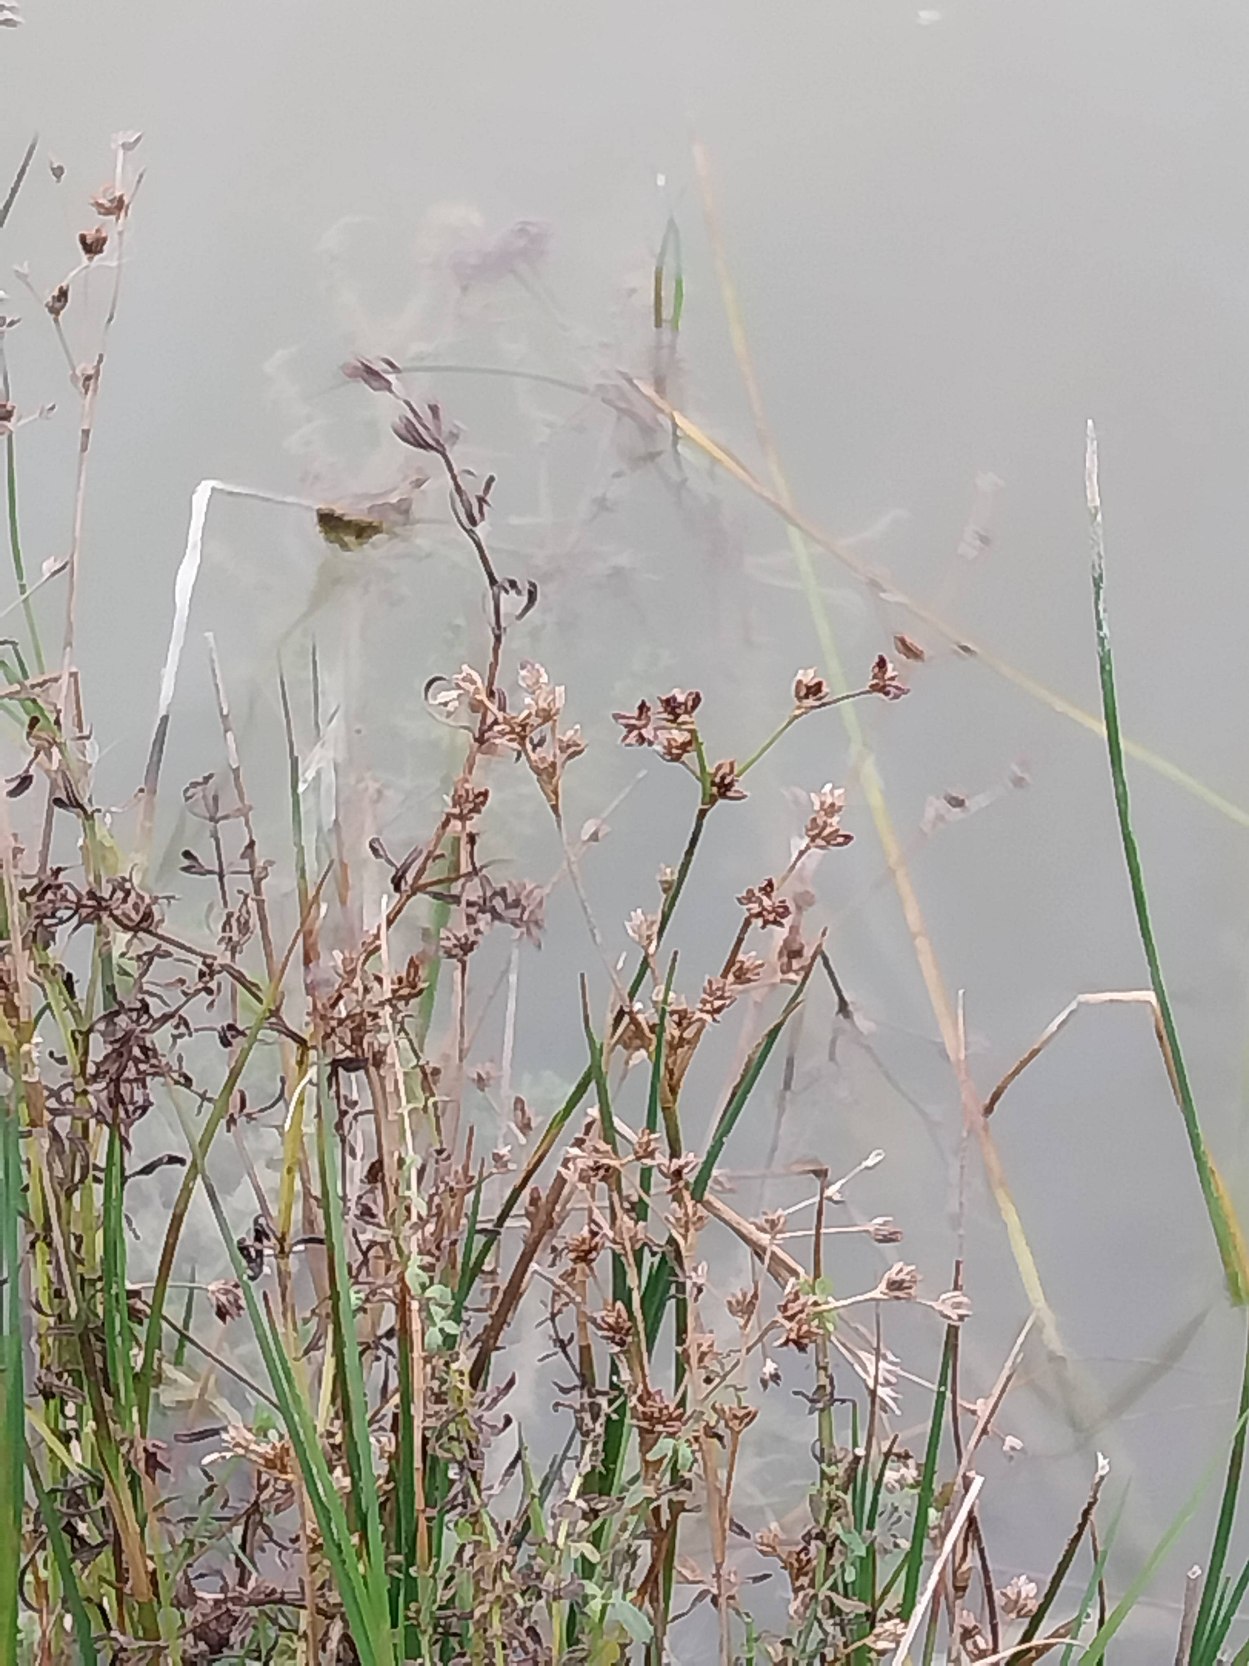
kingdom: Plantae
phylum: Tracheophyta
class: Liliopsida
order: Poales
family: Juncaceae
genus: Juncus
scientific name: Juncus articulatus
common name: Glanskapslet siv
